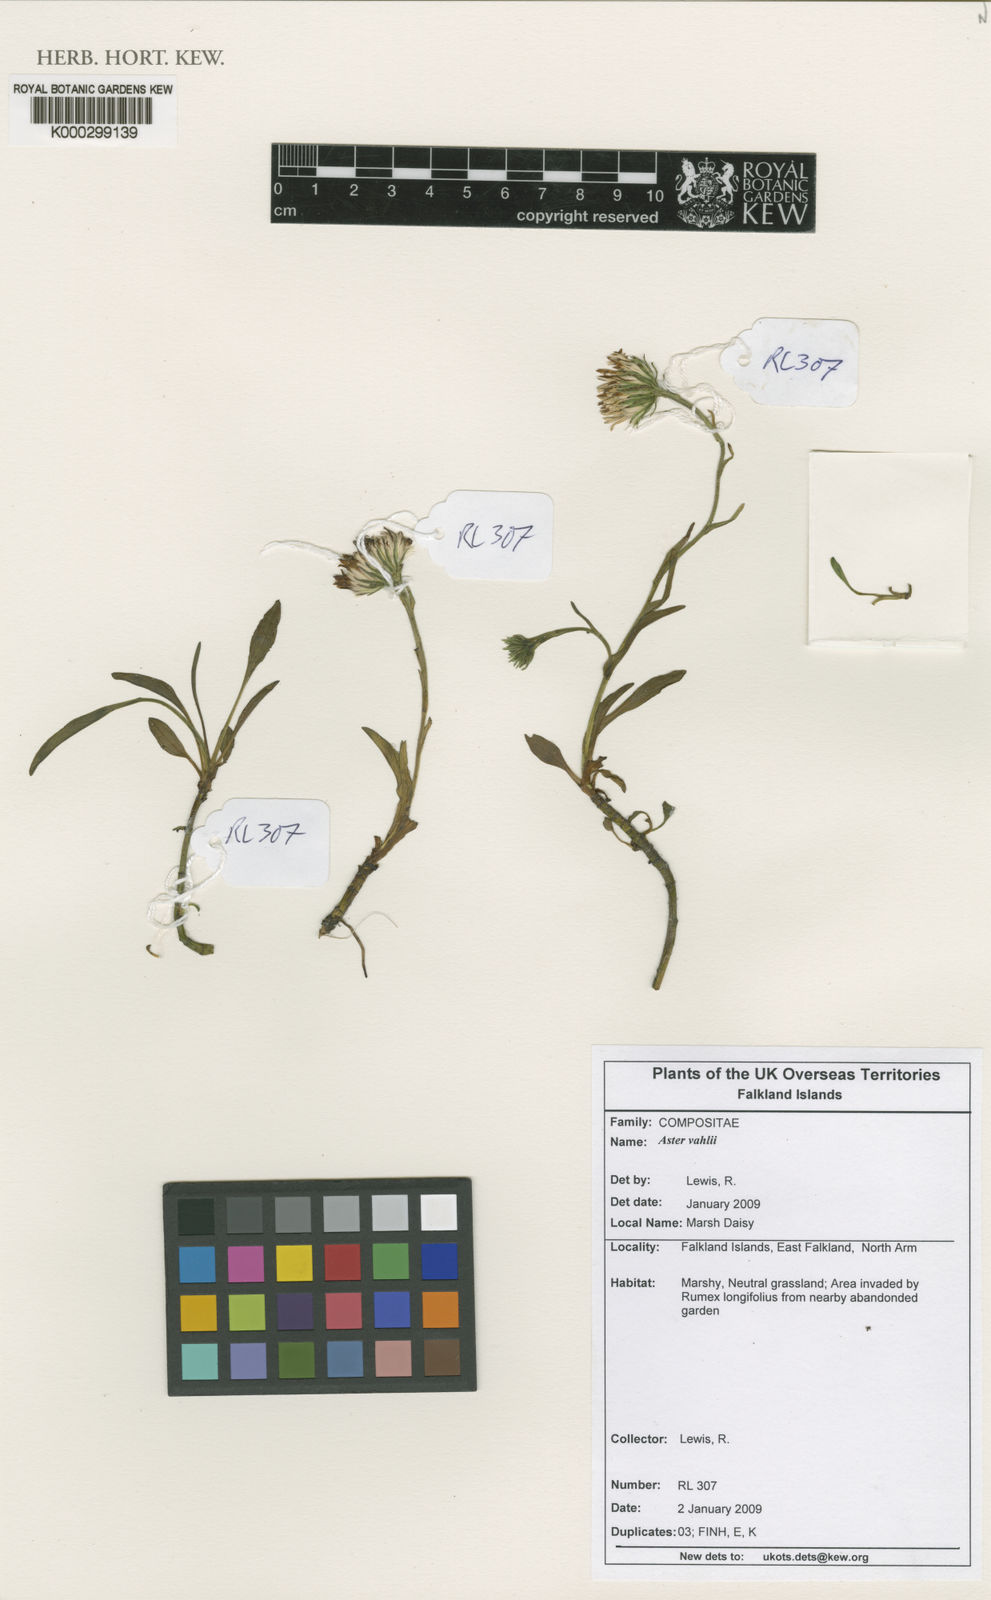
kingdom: Plantae
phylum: Tracheophyta
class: Magnoliopsida
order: Asterales
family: Asteraceae
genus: Symphyotrichum
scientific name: Symphyotrichum vahlii
